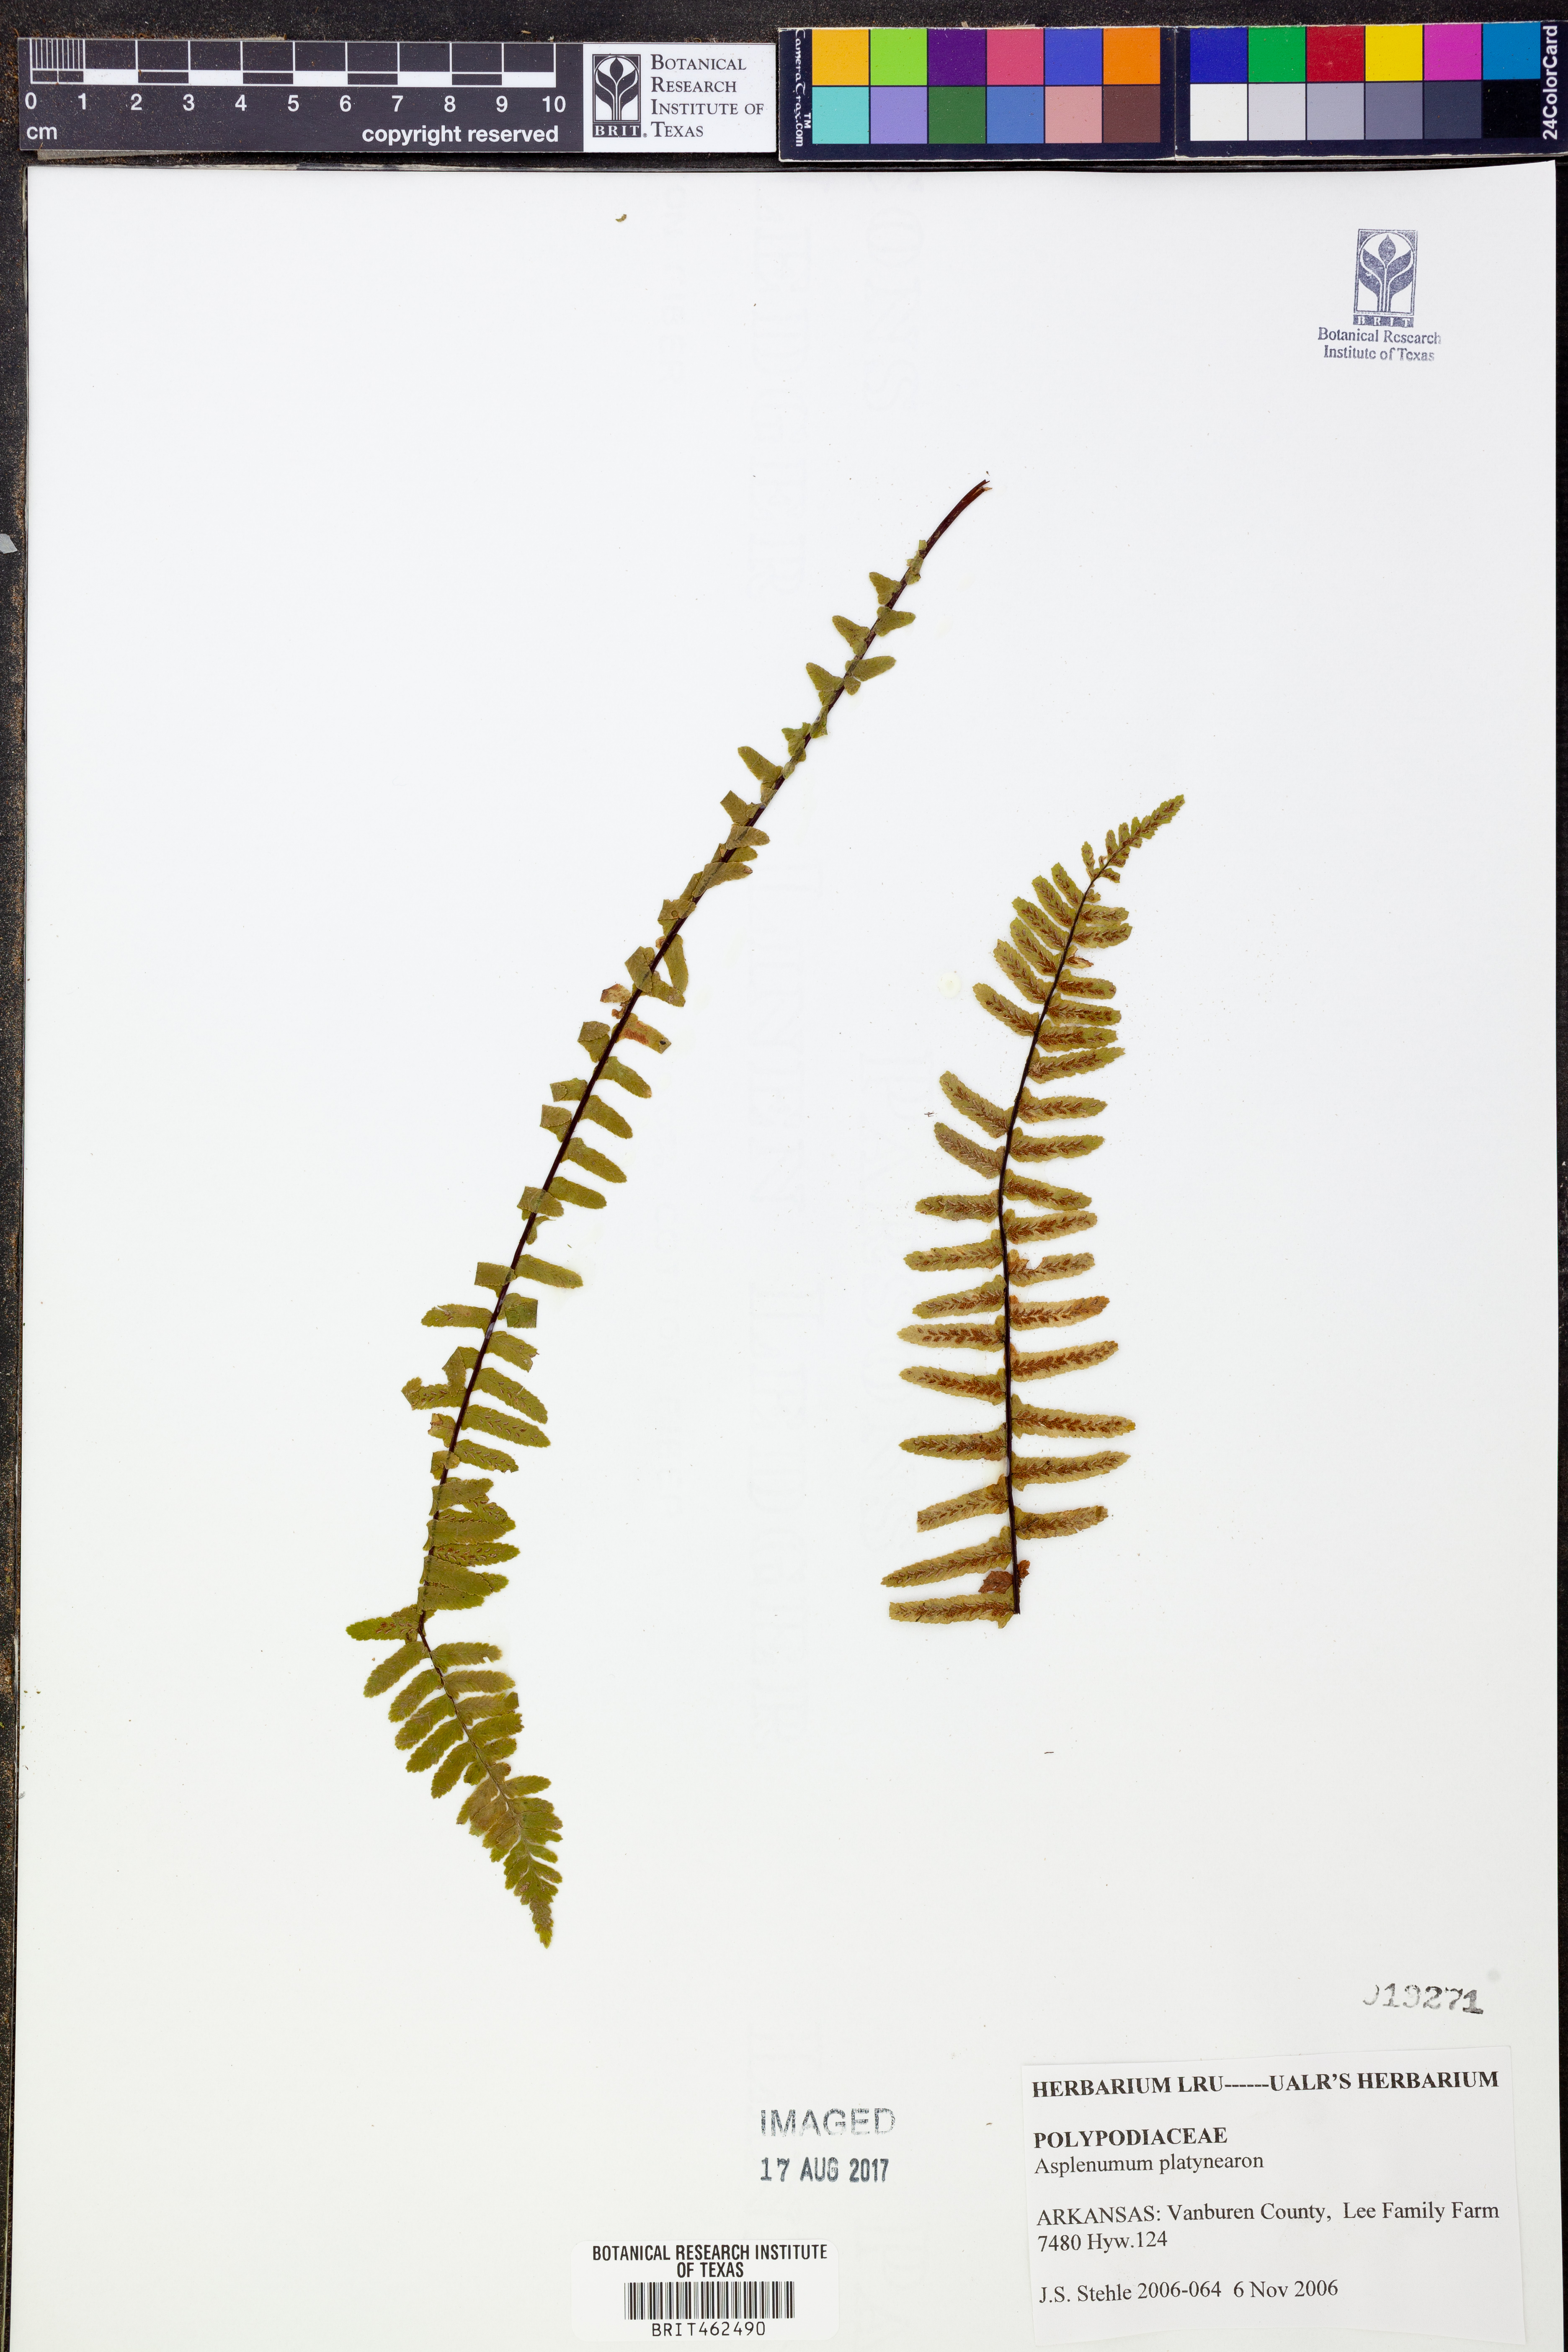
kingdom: Plantae
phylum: Tracheophyta
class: Polypodiopsida
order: Polypodiales
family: Aspleniaceae
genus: Asplenium
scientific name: Asplenium platyneuron
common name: Ebony spleenwort
